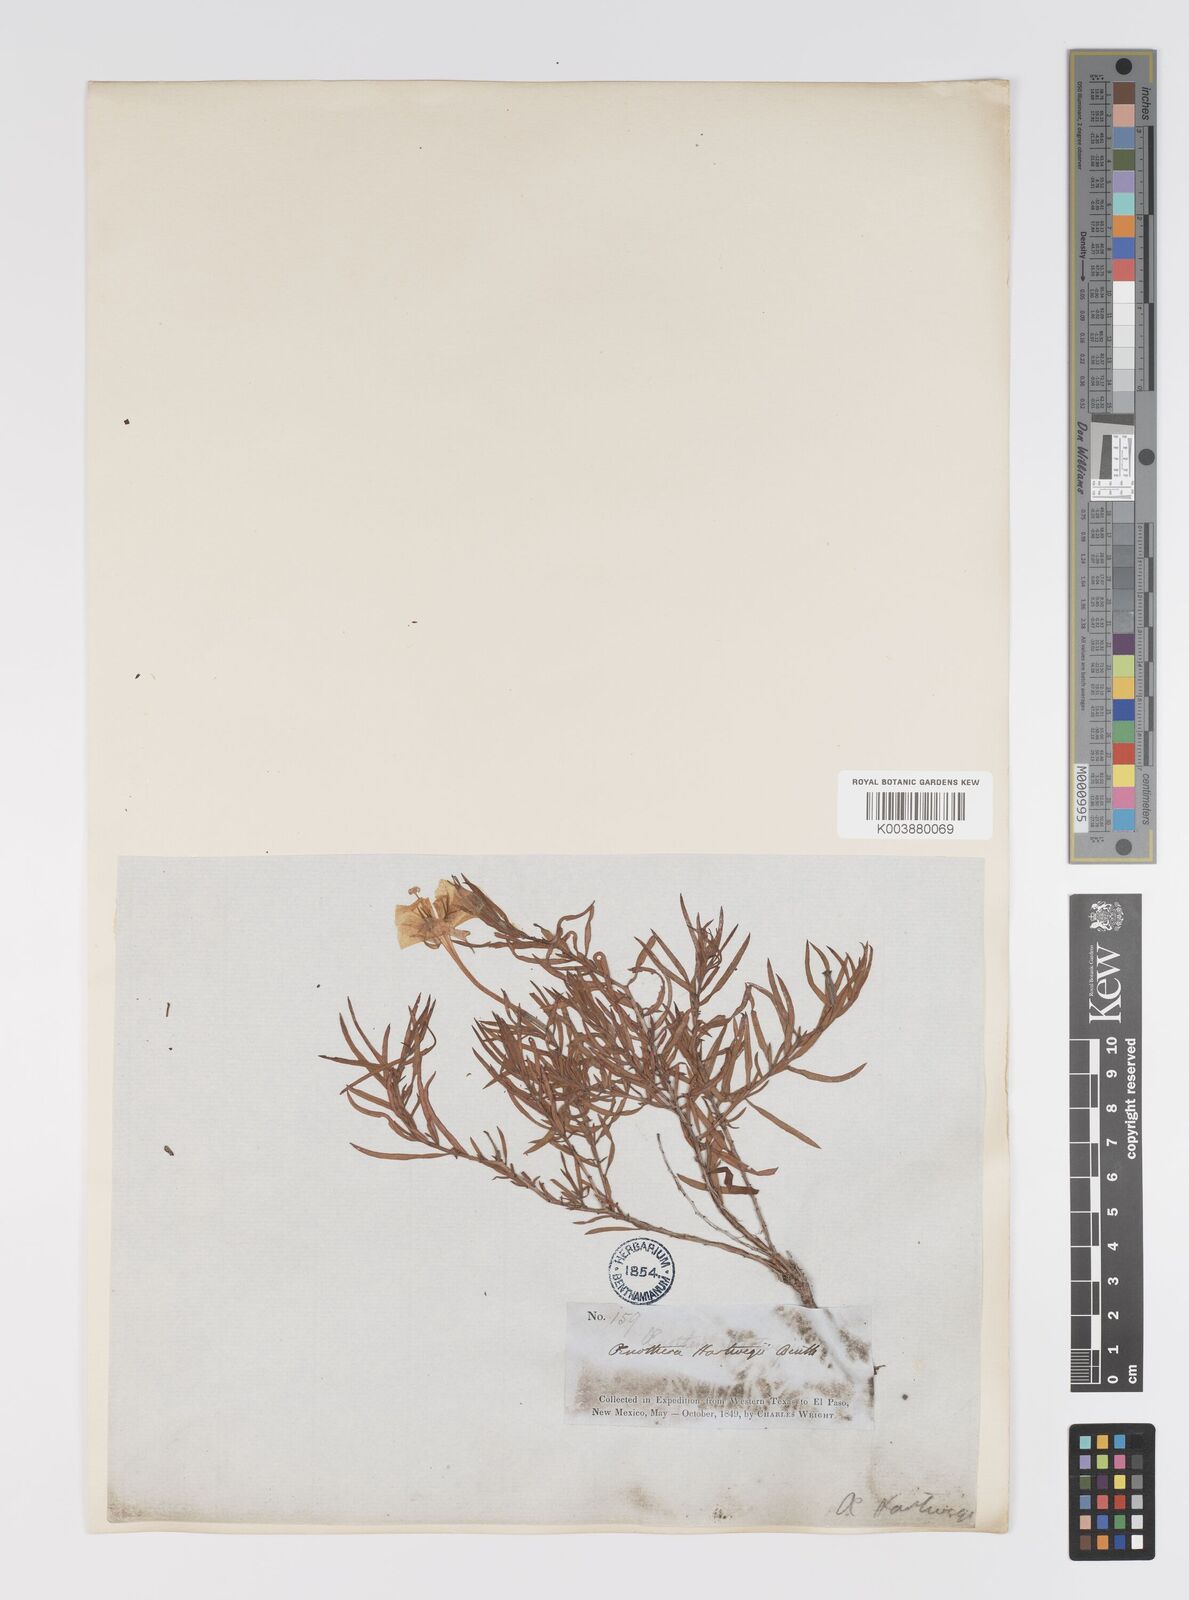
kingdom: Plantae
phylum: Tracheophyta
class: Magnoliopsida
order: Myrtales
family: Onagraceae
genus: Oenothera
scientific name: Oenothera hartwegii
